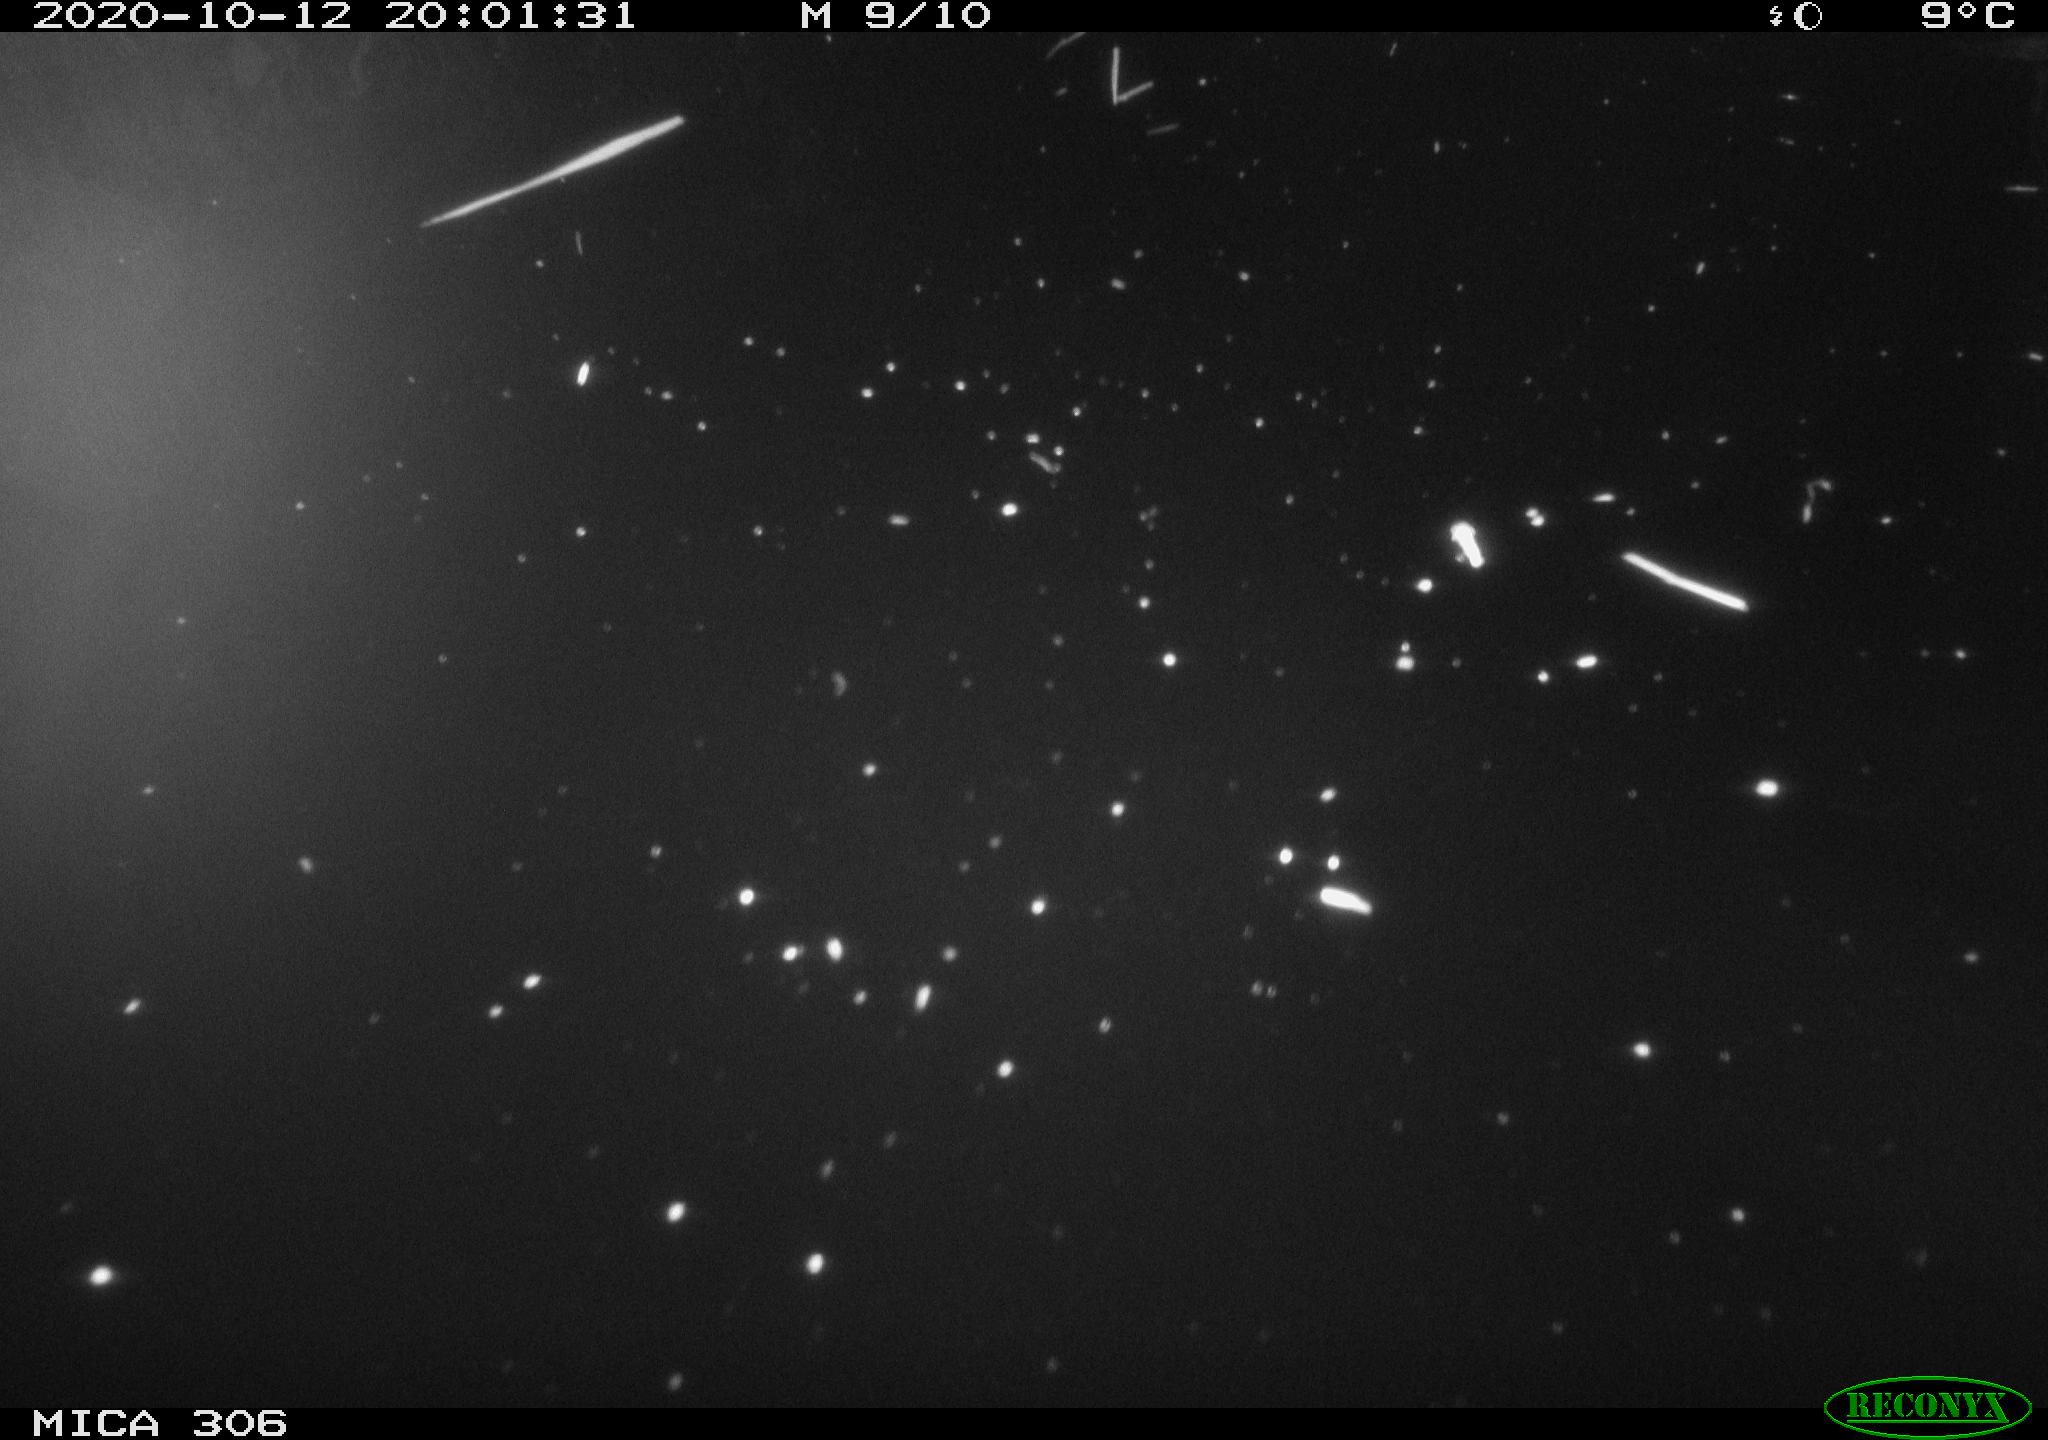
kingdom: Animalia
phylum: Chordata
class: Mammalia
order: Rodentia
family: Cricetidae
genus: Ondatra
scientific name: Ondatra zibethicus
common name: Muskrat
